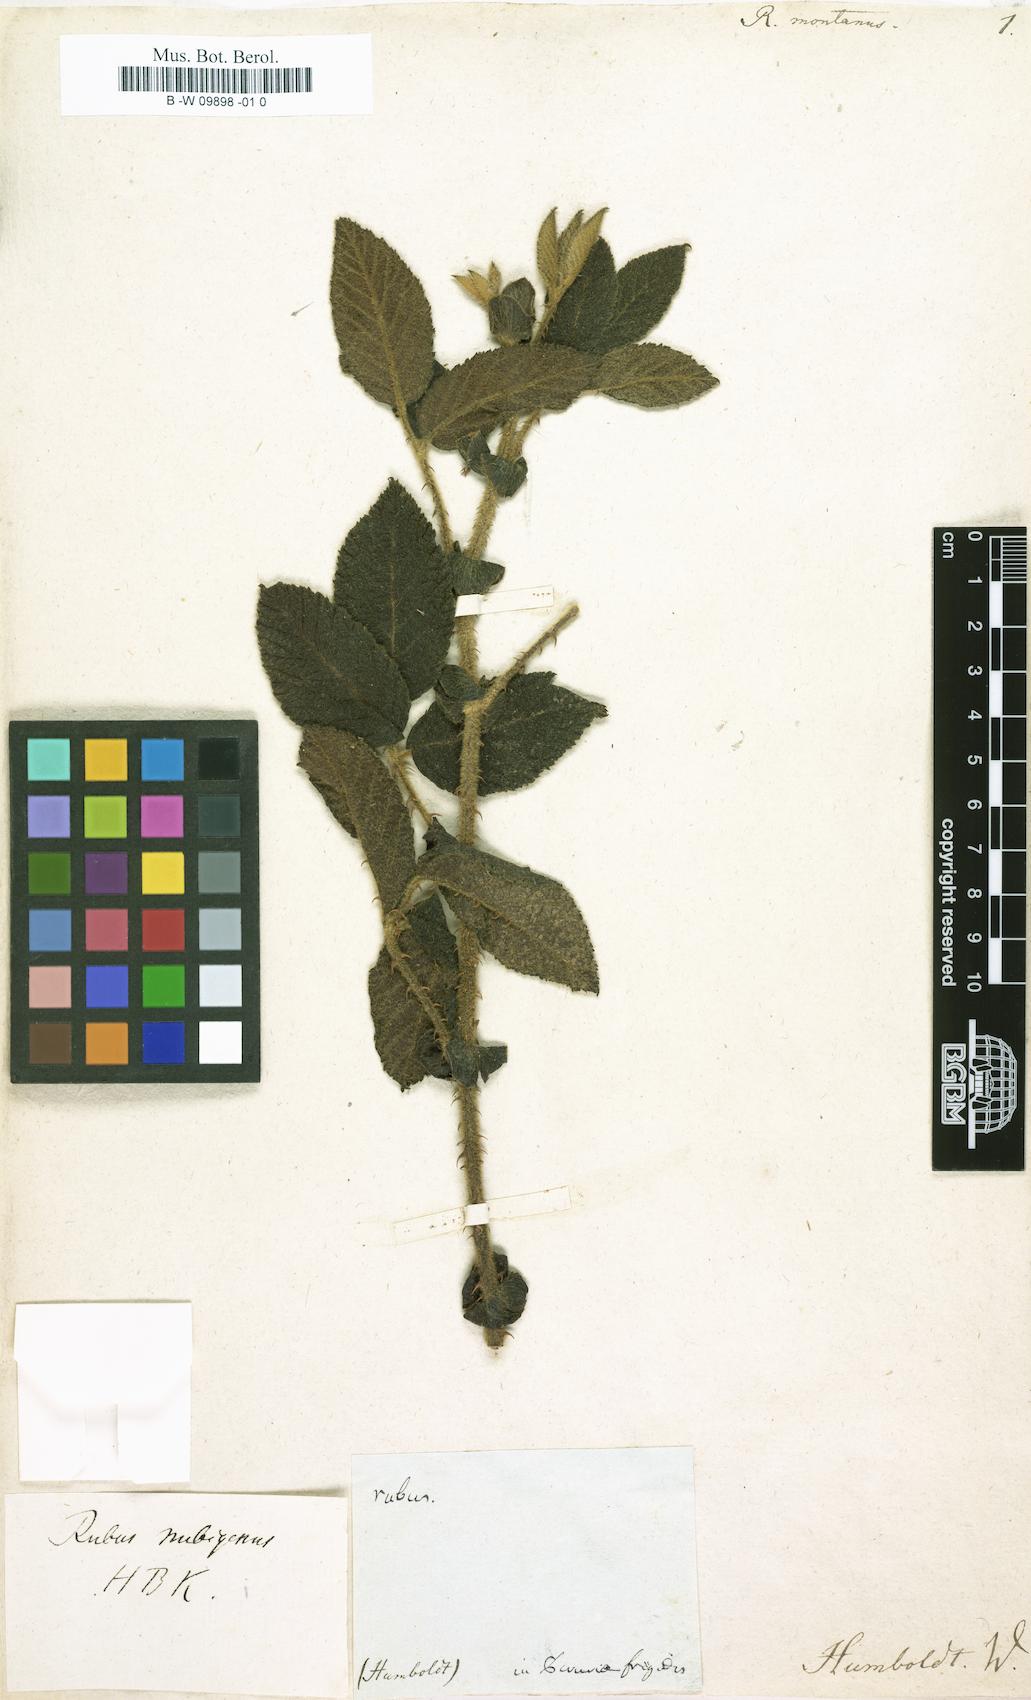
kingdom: Plantae
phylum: Tracheophyta
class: Magnoliopsida
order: Rosales
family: Rosaceae
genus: Rubus
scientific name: Rubus montanus
